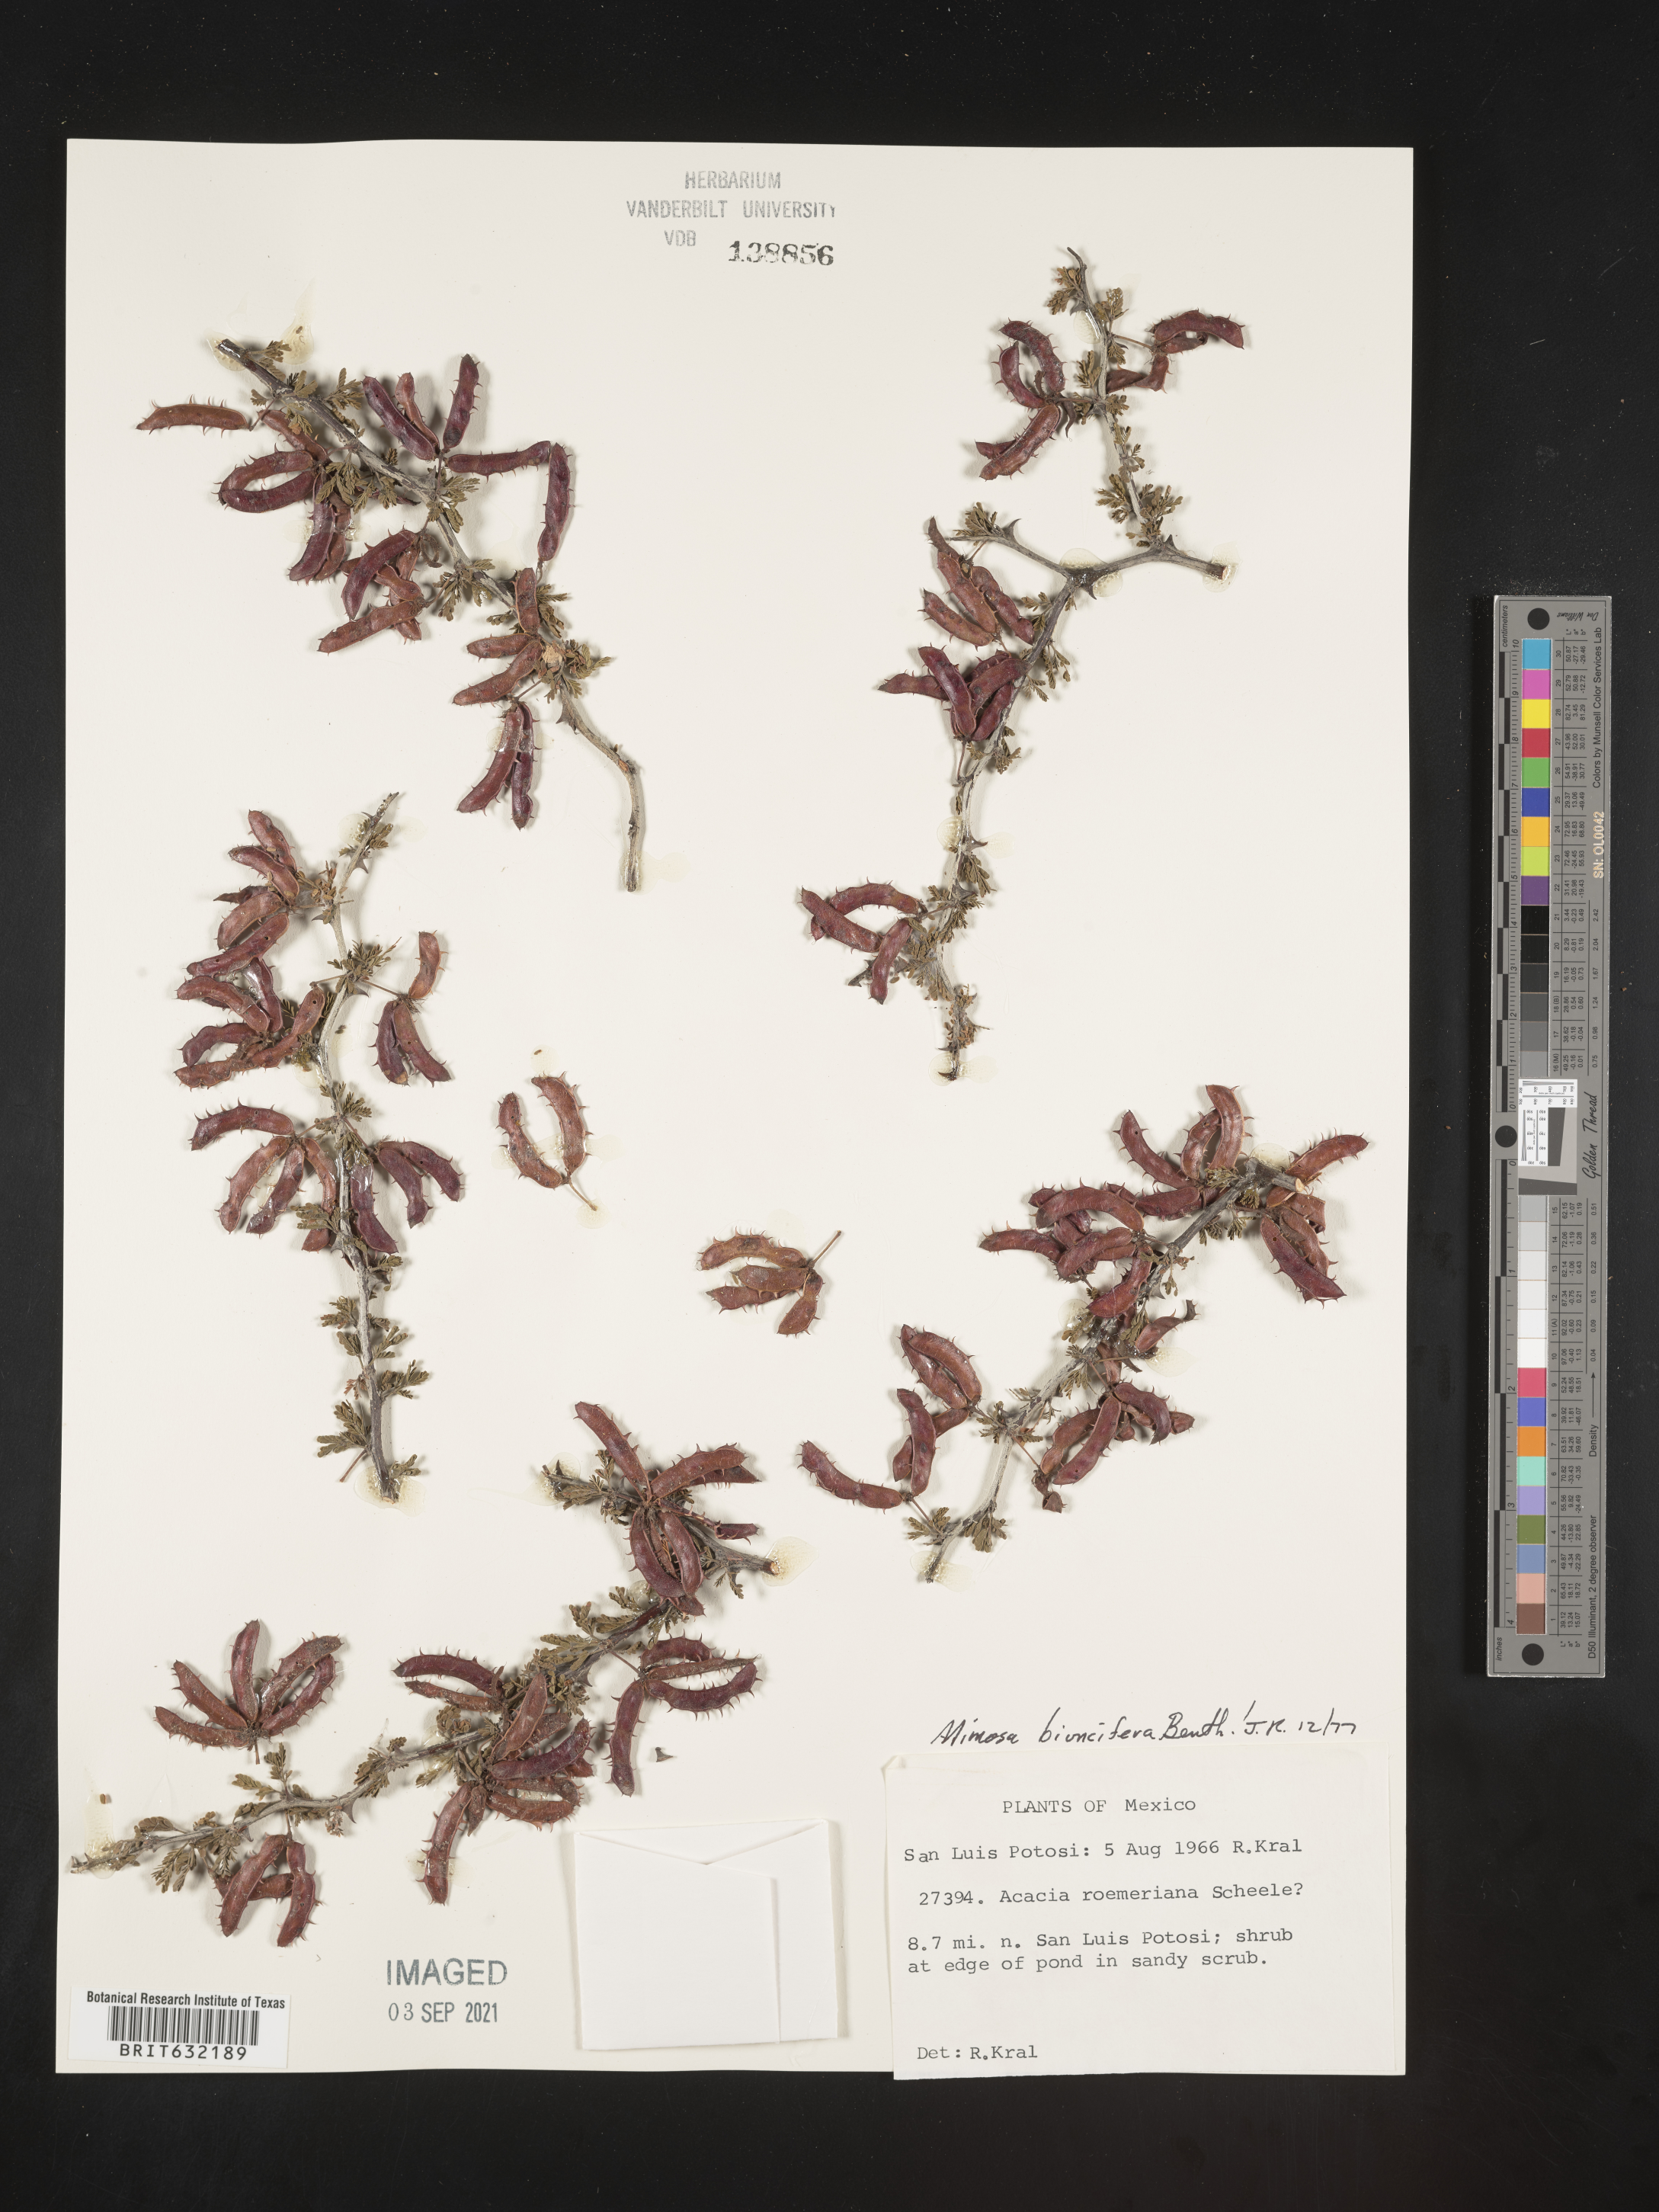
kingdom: Plantae
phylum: Tracheophyta
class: Magnoliopsida
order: Fabales
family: Fabaceae
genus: Mimosa
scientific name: Mimosa
